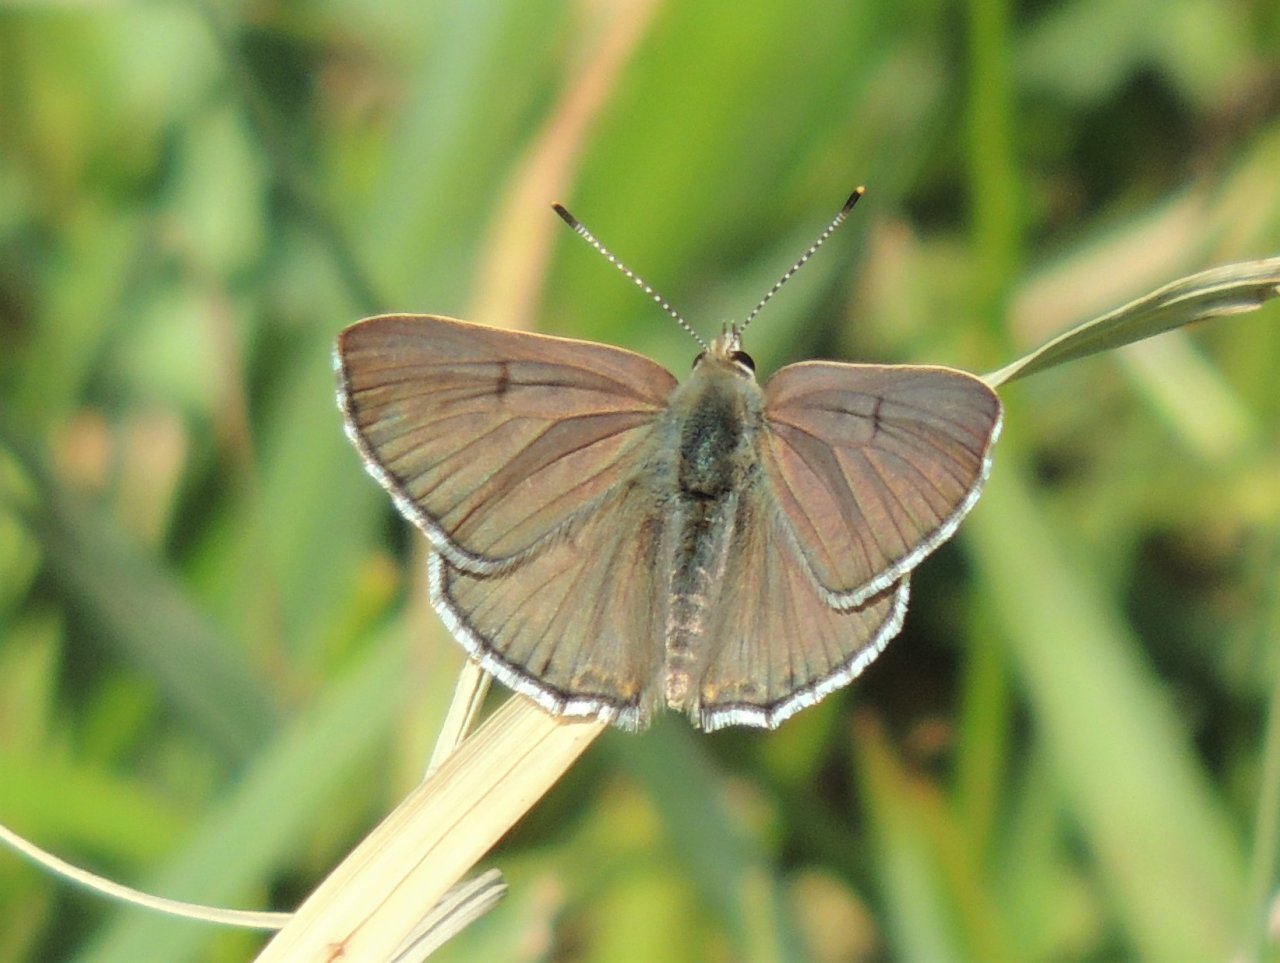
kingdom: Animalia
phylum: Arthropoda
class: Insecta
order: Lepidoptera
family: Lycaenidae
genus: Lycaena
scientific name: Lycaena editha
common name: Edith's Copper
